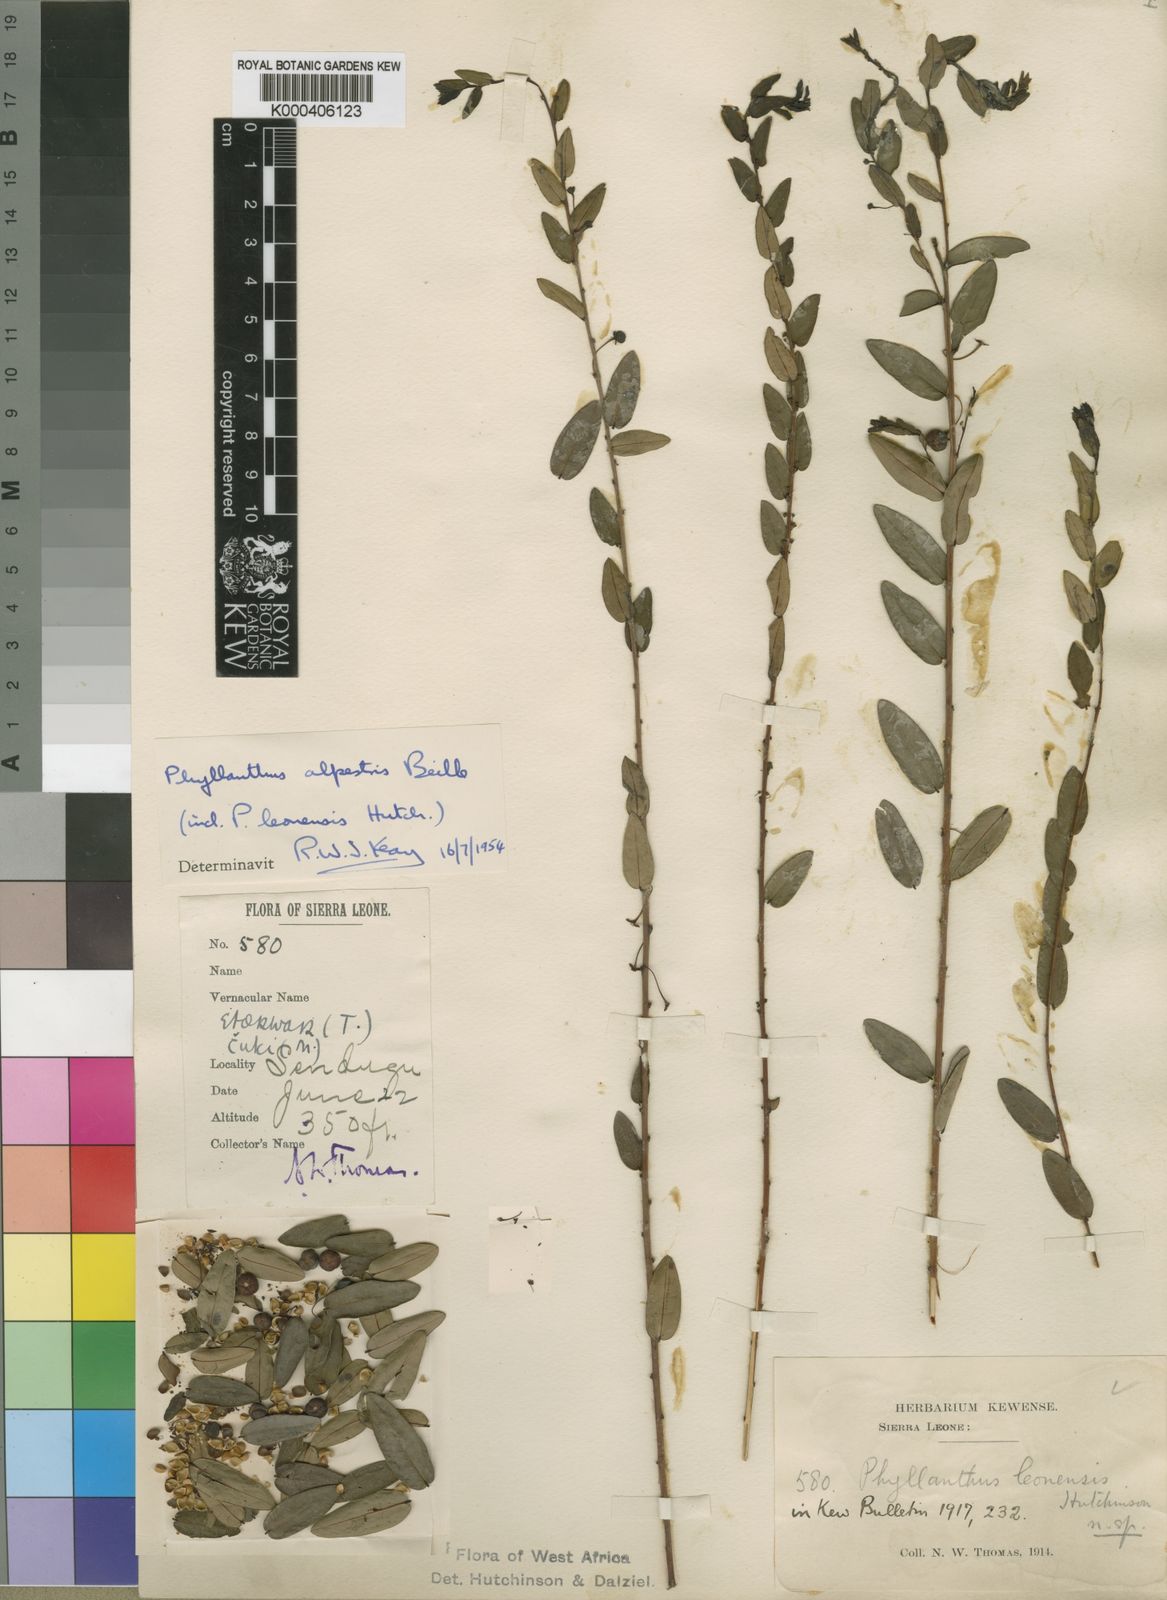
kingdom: Plantae
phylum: Tracheophyta
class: Magnoliopsida
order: Malpighiales
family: Phyllanthaceae
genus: Phyllanthus
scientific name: Phyllanthus glaucophyllus
